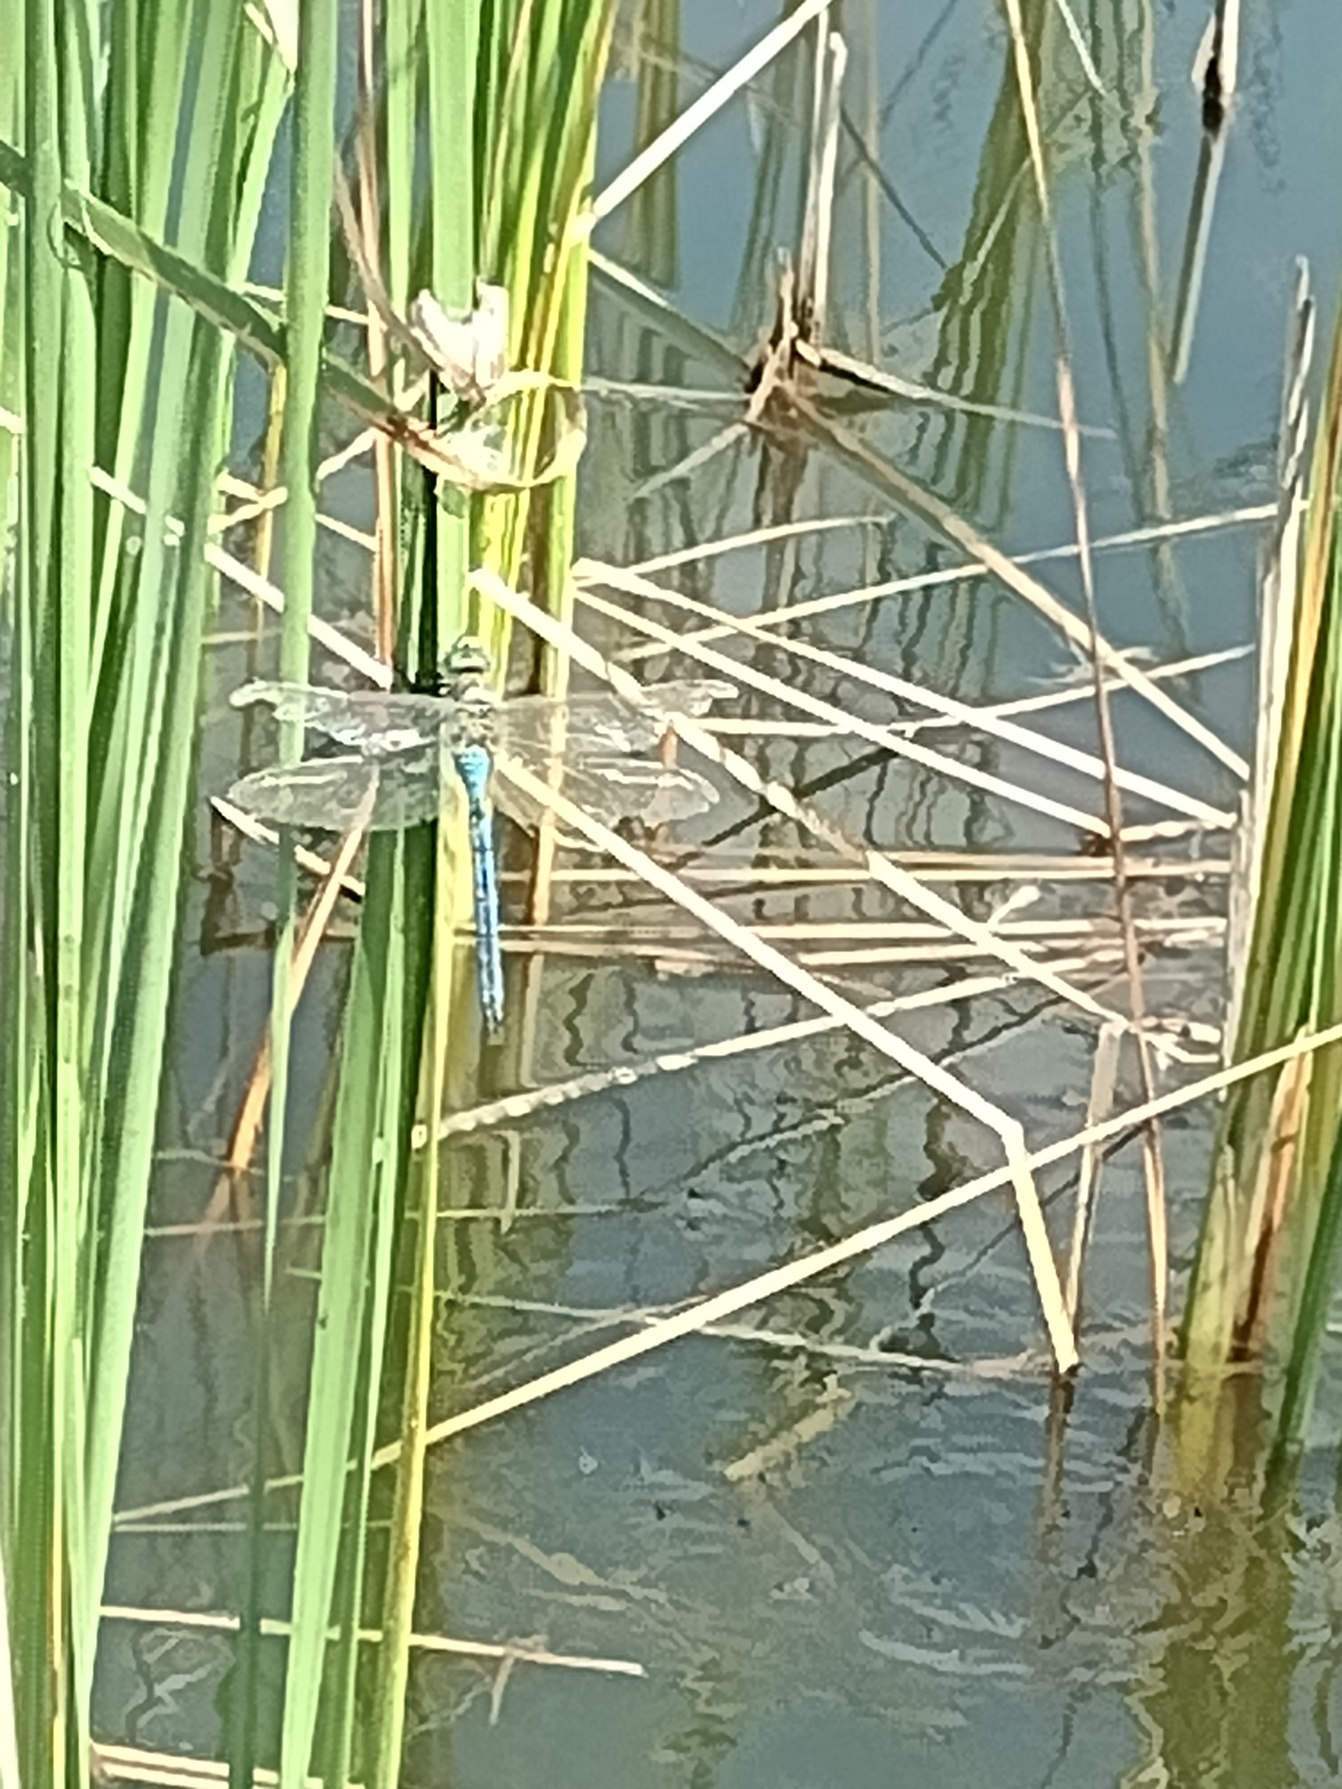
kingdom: Animalia
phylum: Arthropoda
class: Insecta
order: Odonata
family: Aeshnidae
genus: Anax
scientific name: Anax imperator
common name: Stor kejserguldsmed
